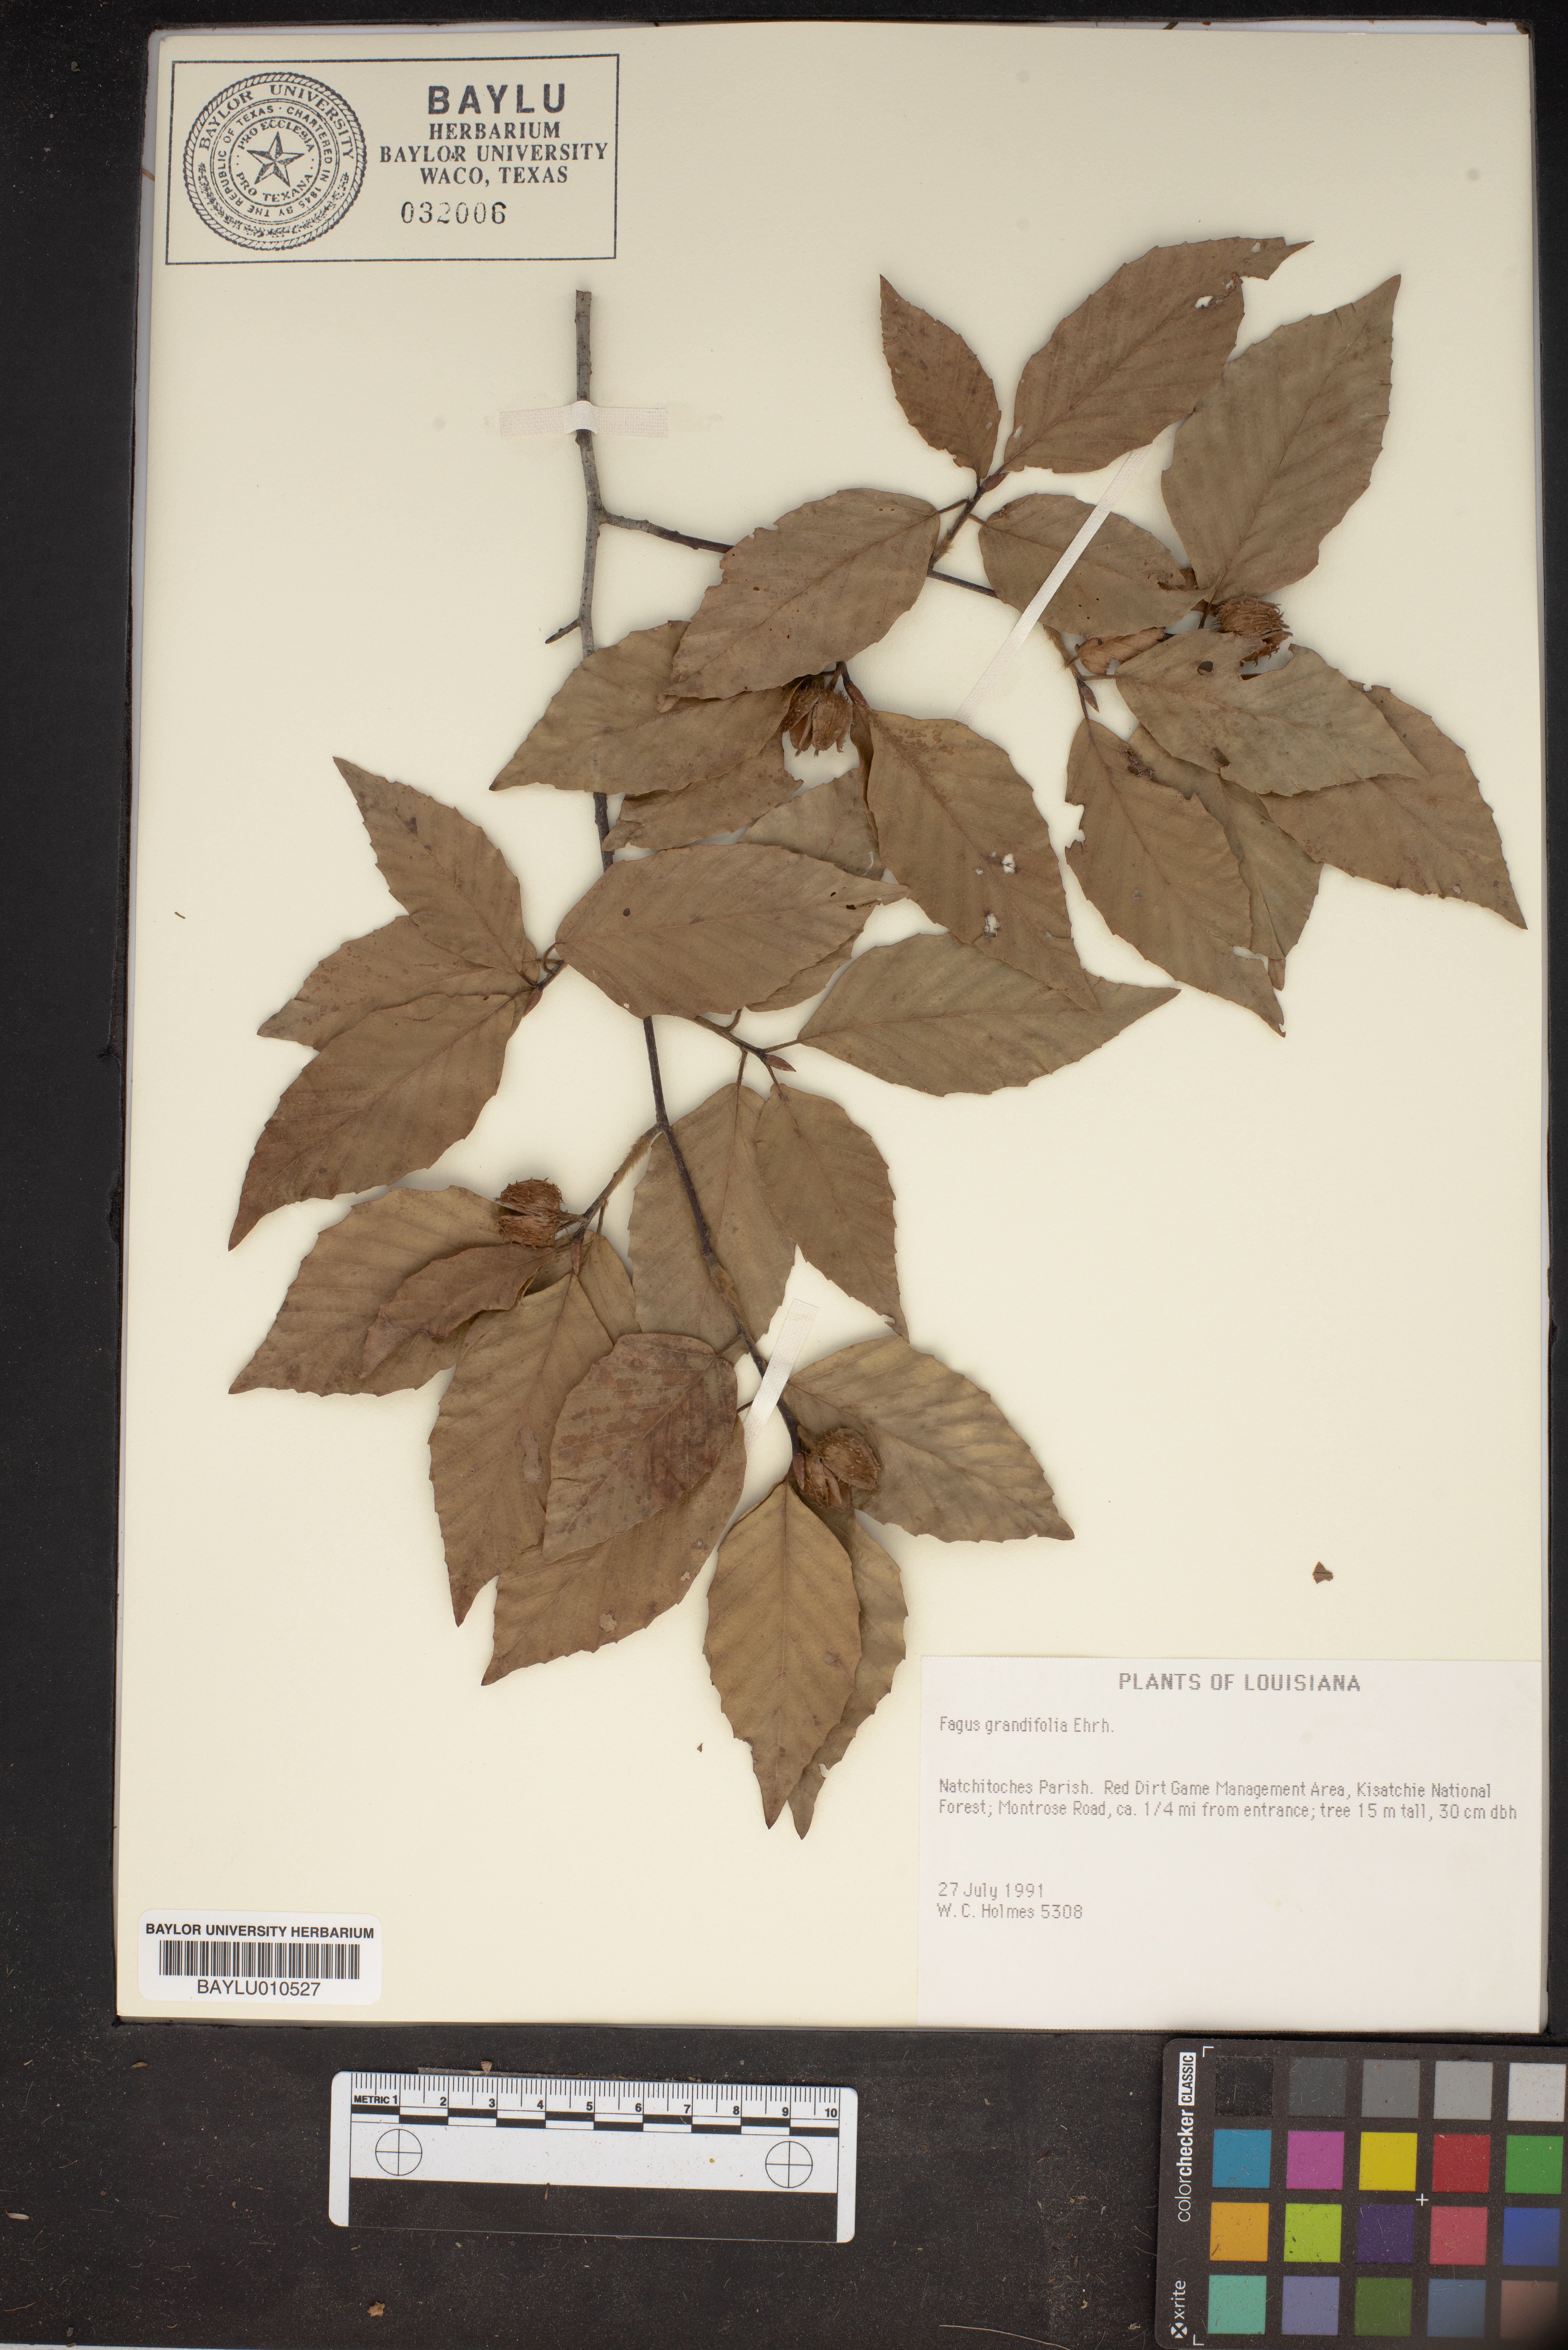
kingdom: Plantae
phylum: Tracheophyta
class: Magnoliopsida
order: Fagales
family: Fagaceae
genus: Fagus
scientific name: Fagus grandifolia
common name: American beech
